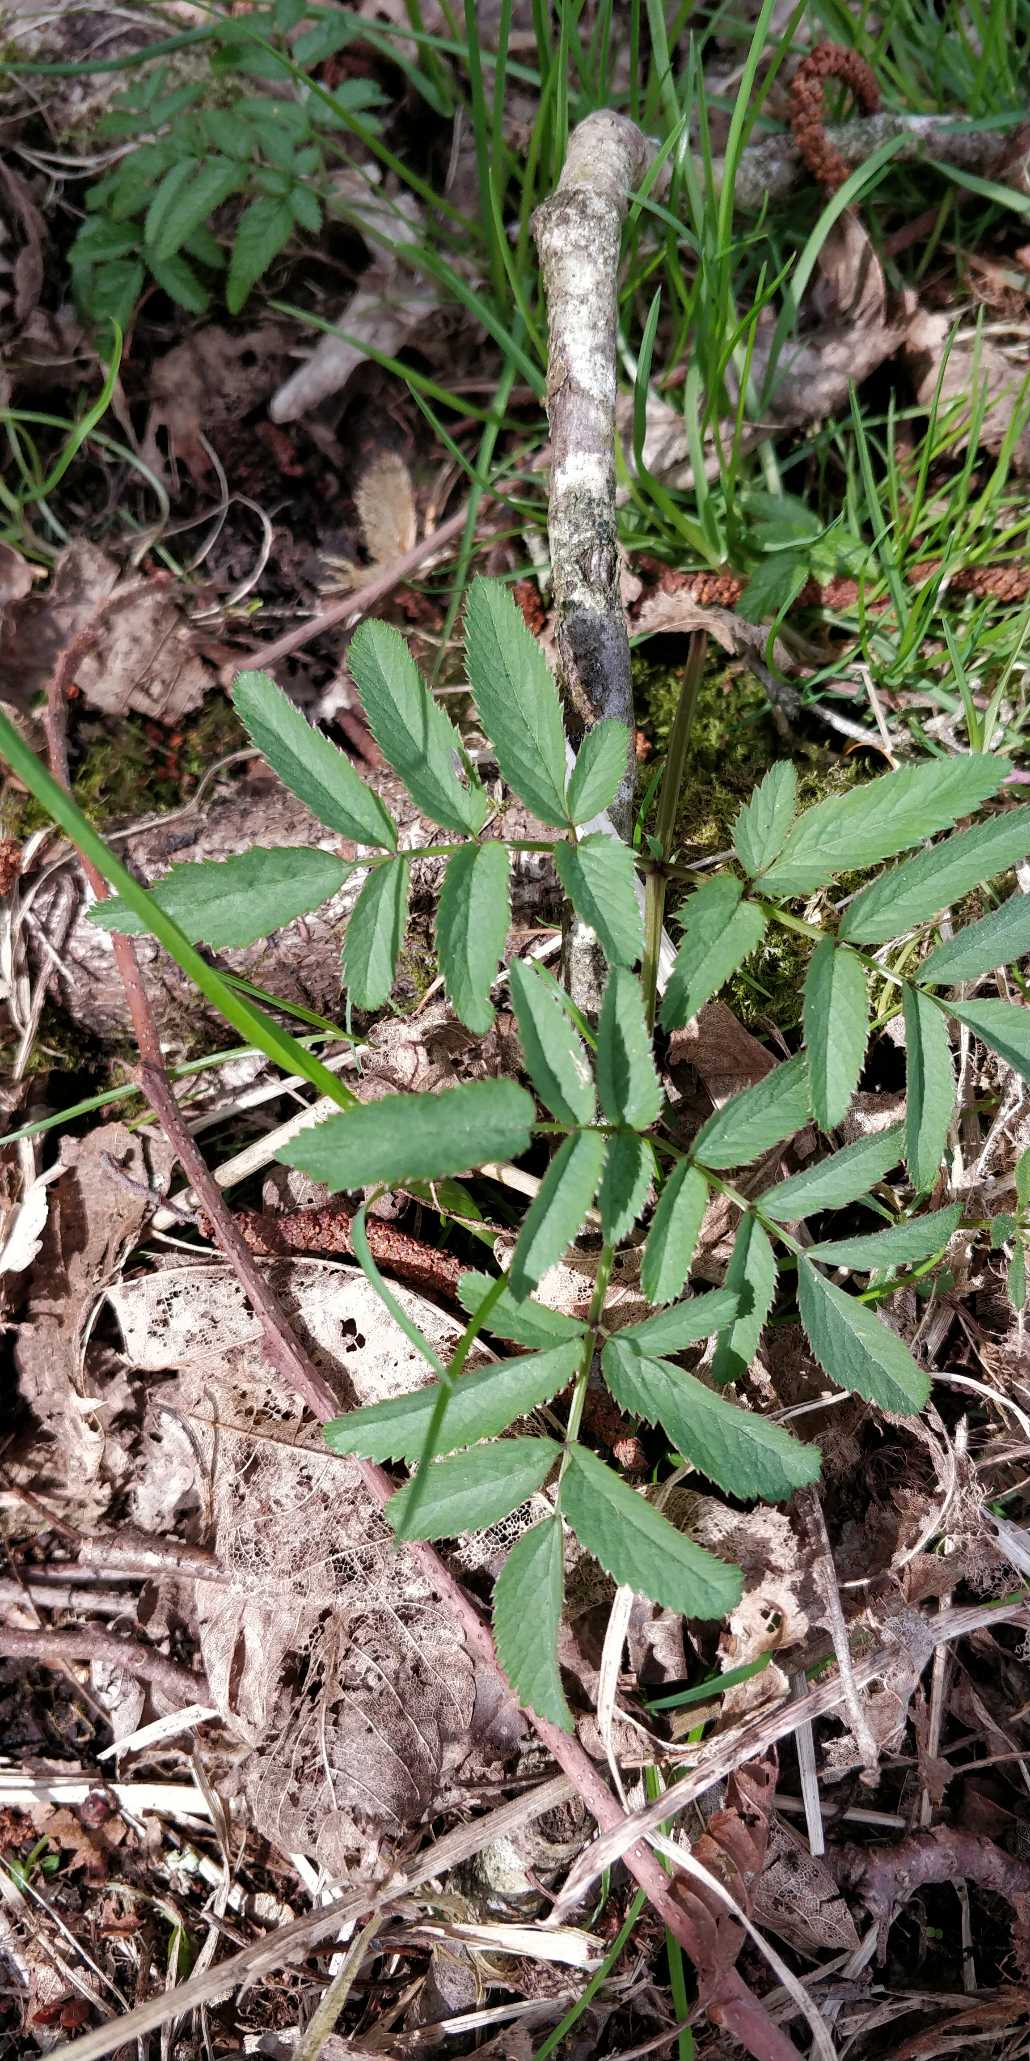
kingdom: Plantae
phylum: Tracheophyta
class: Magnoliopsida
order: Apiales
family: Apiaceae
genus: Angelica
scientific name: Angelica sylvestris
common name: Angelik
